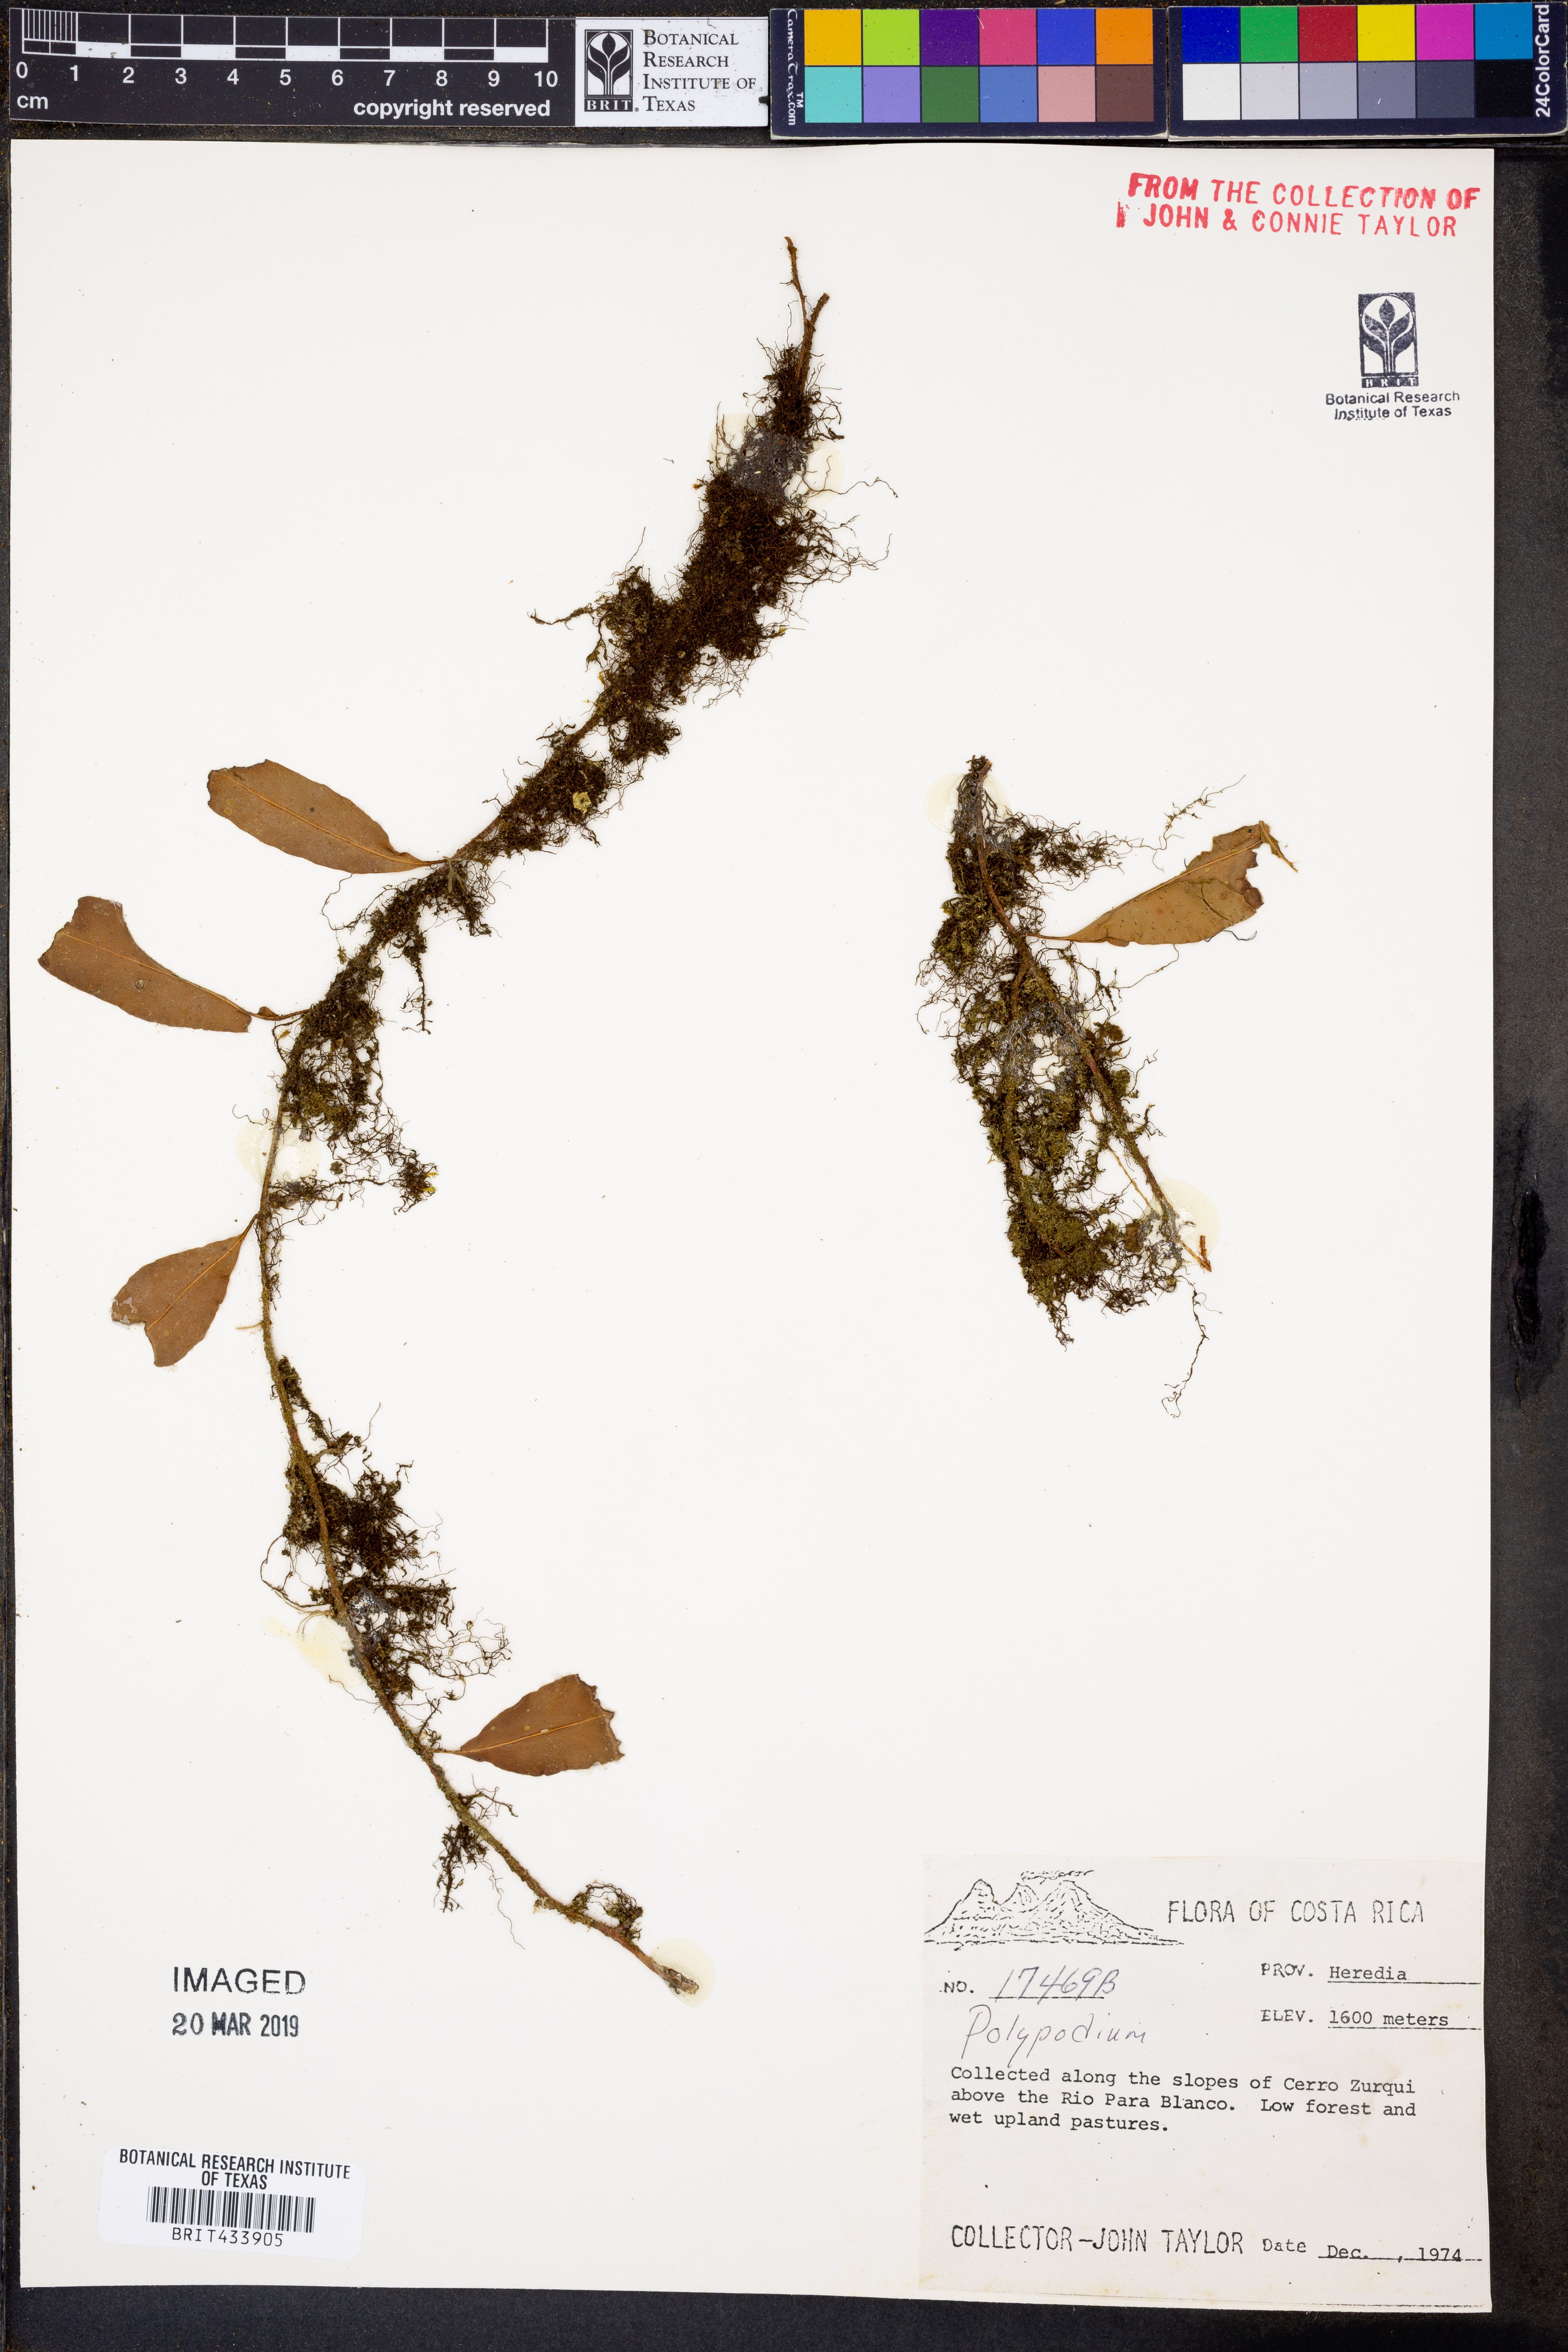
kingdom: Plantae
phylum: Tracheophyta
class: Polypodiopsida
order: Polypodiales
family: Polypodiaceae
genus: Polypodium
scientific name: Polypodium
